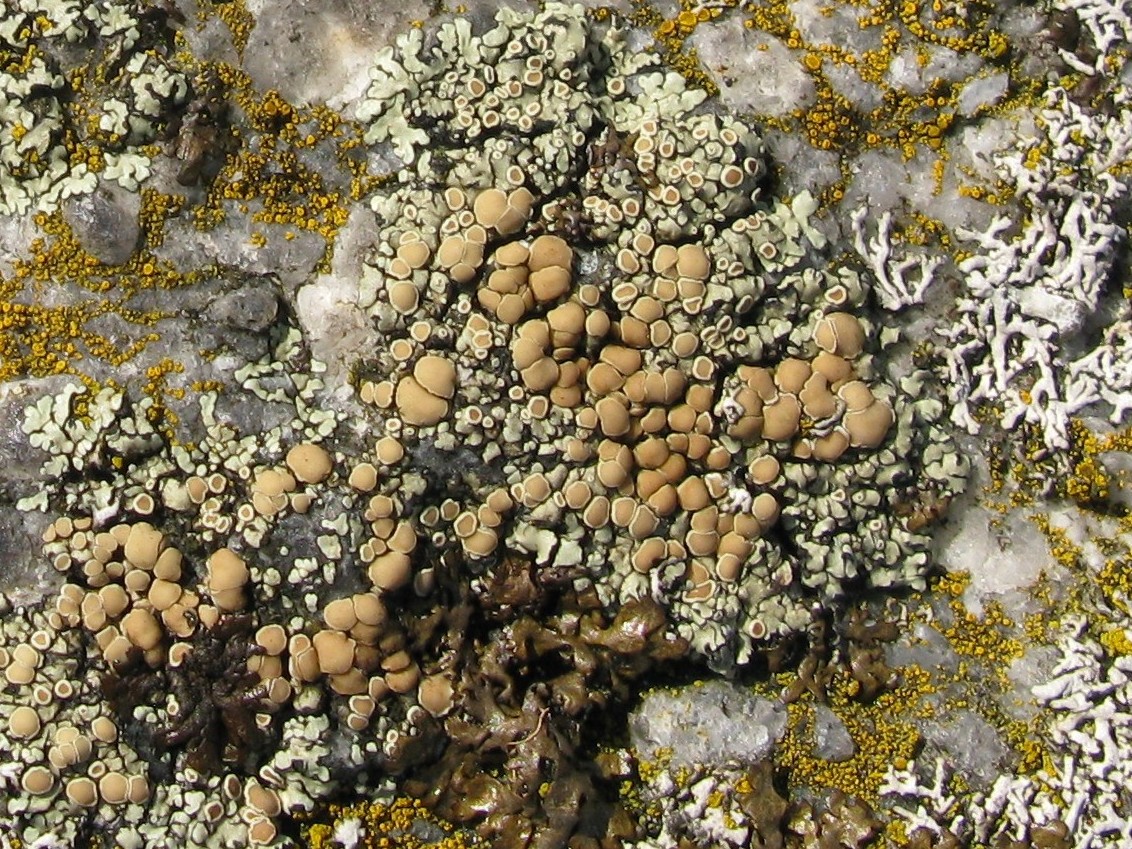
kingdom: Fungi
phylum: Ascomycota
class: Lecanoromycetes
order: Lecanorales
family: Lecanoraceae
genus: Protoparmeliopsis
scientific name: Protoparmeliopsis muralis
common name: randfliget kantskivelav
